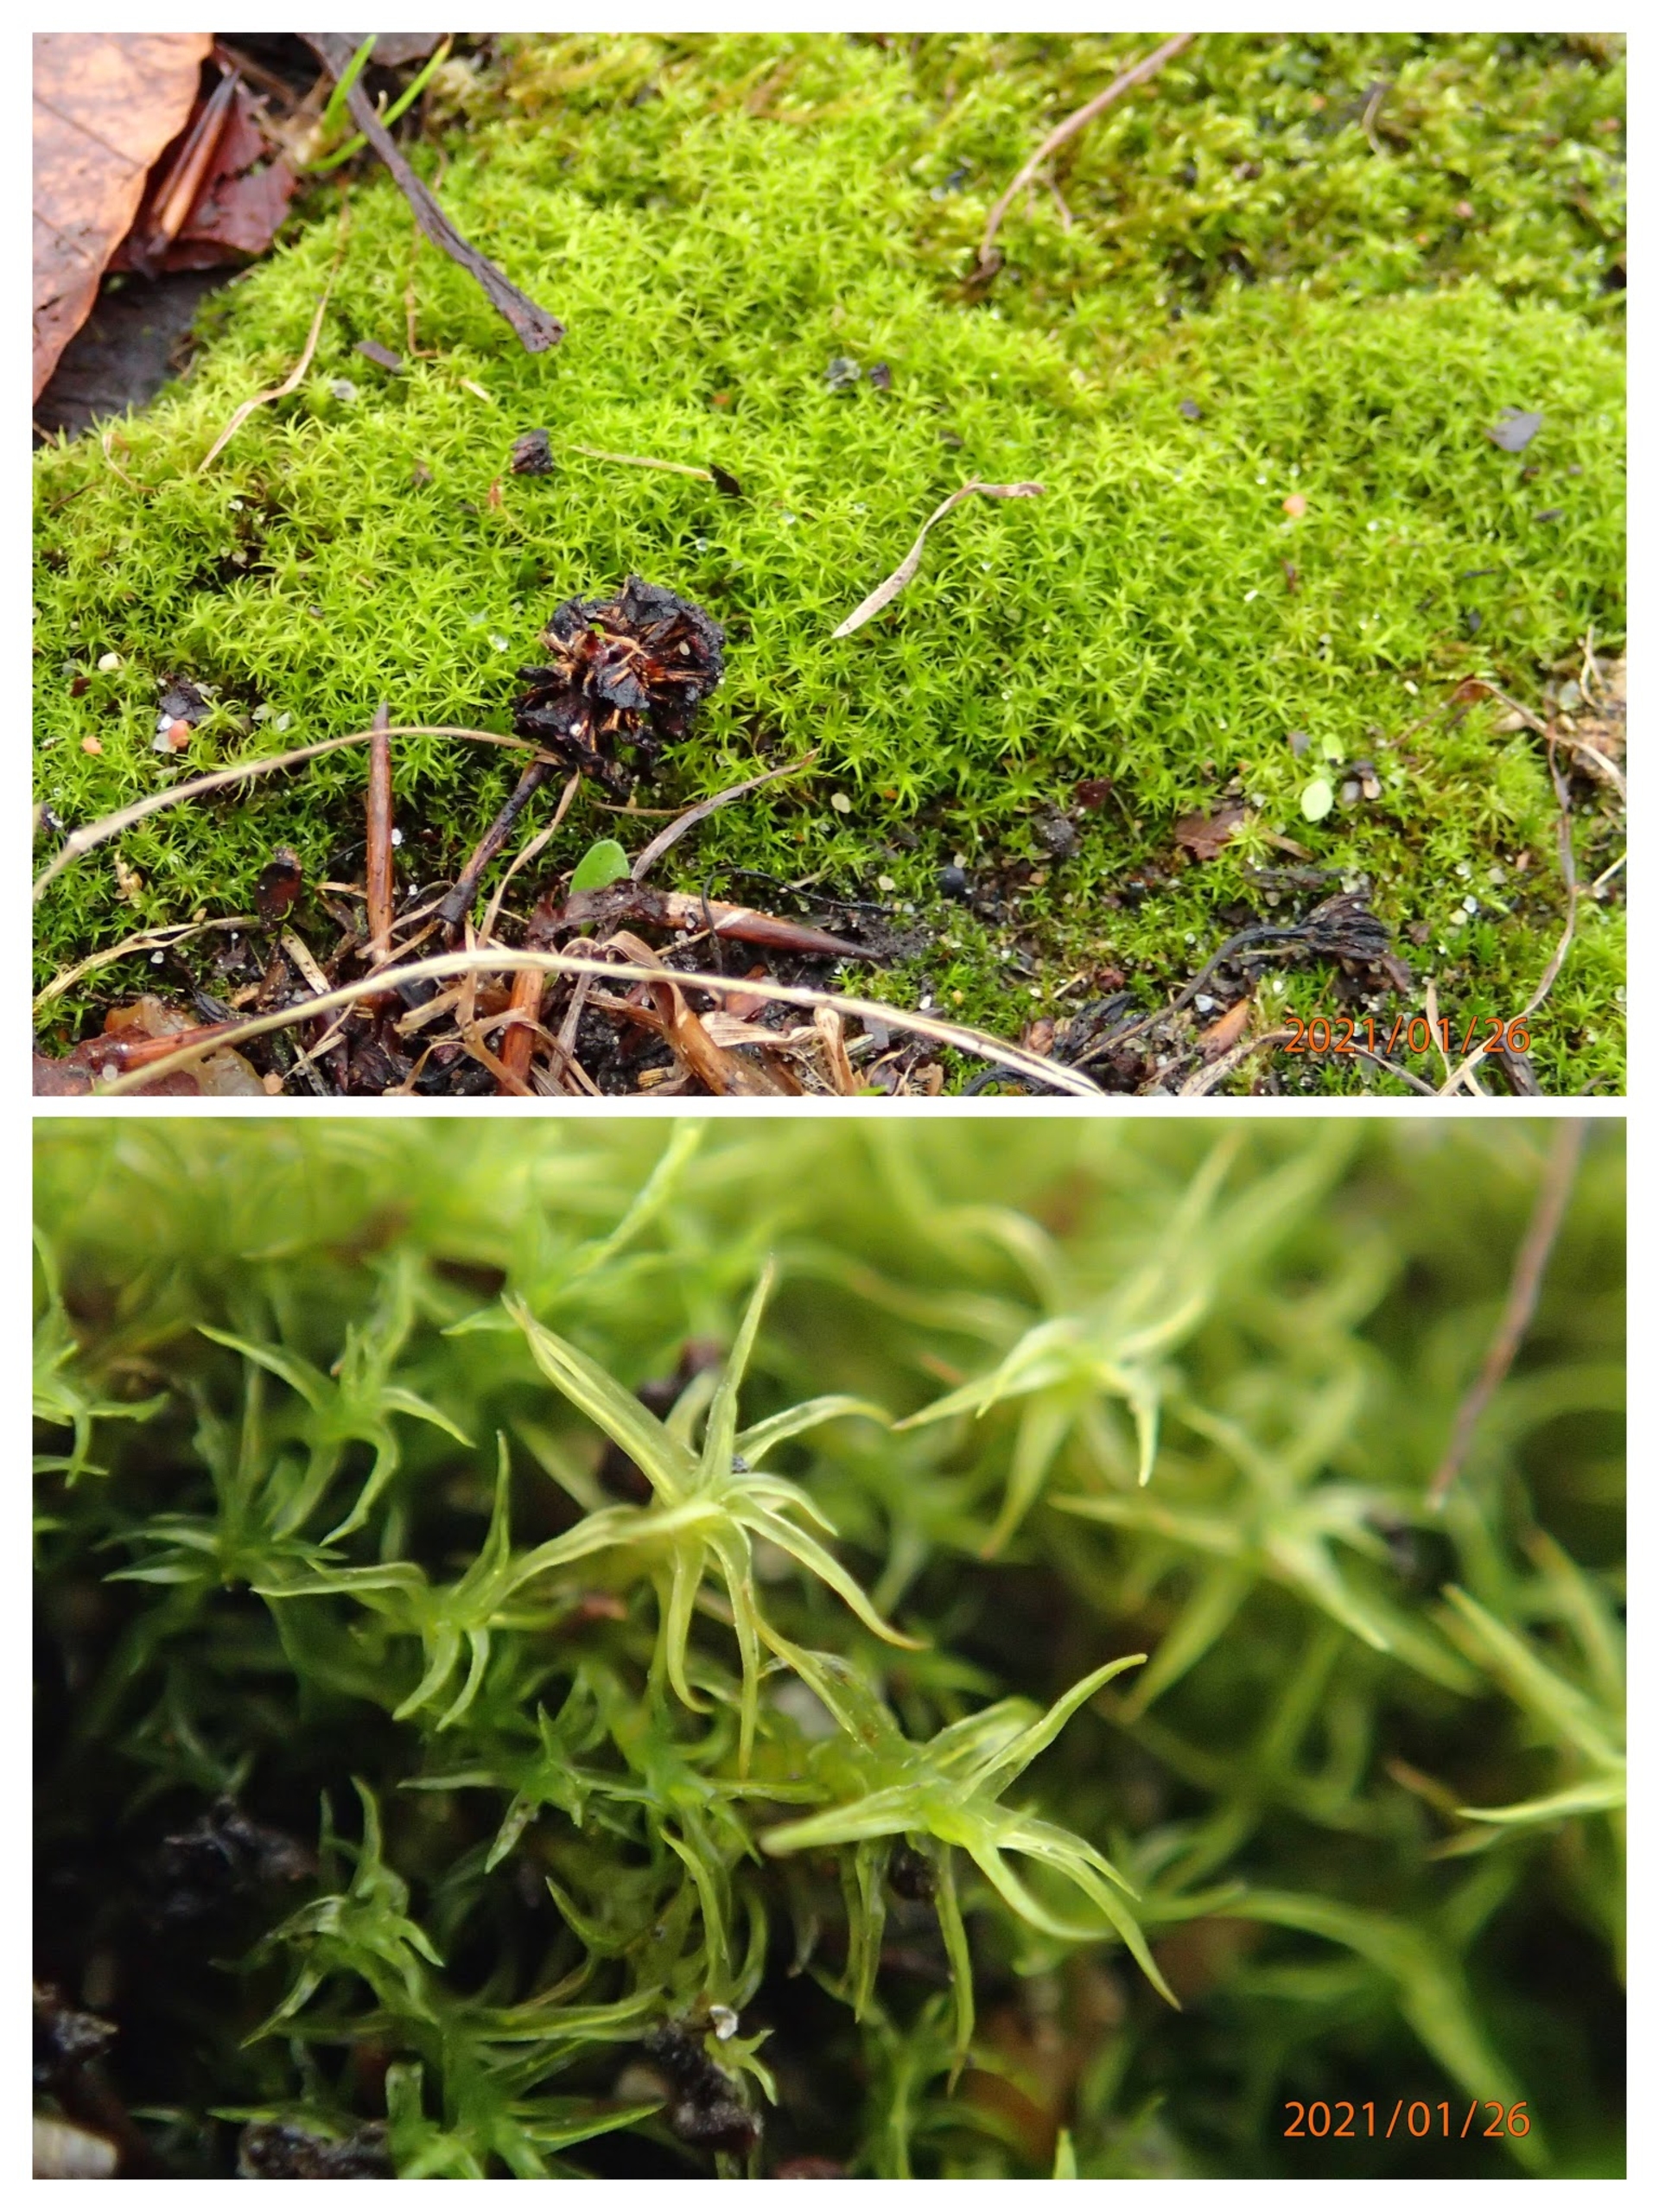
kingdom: Plantae
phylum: Bryophyta
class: Bryopsida
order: Pottiales
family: Pottiaceae
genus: Vinealobryum
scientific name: Vinealobryum insulanum
